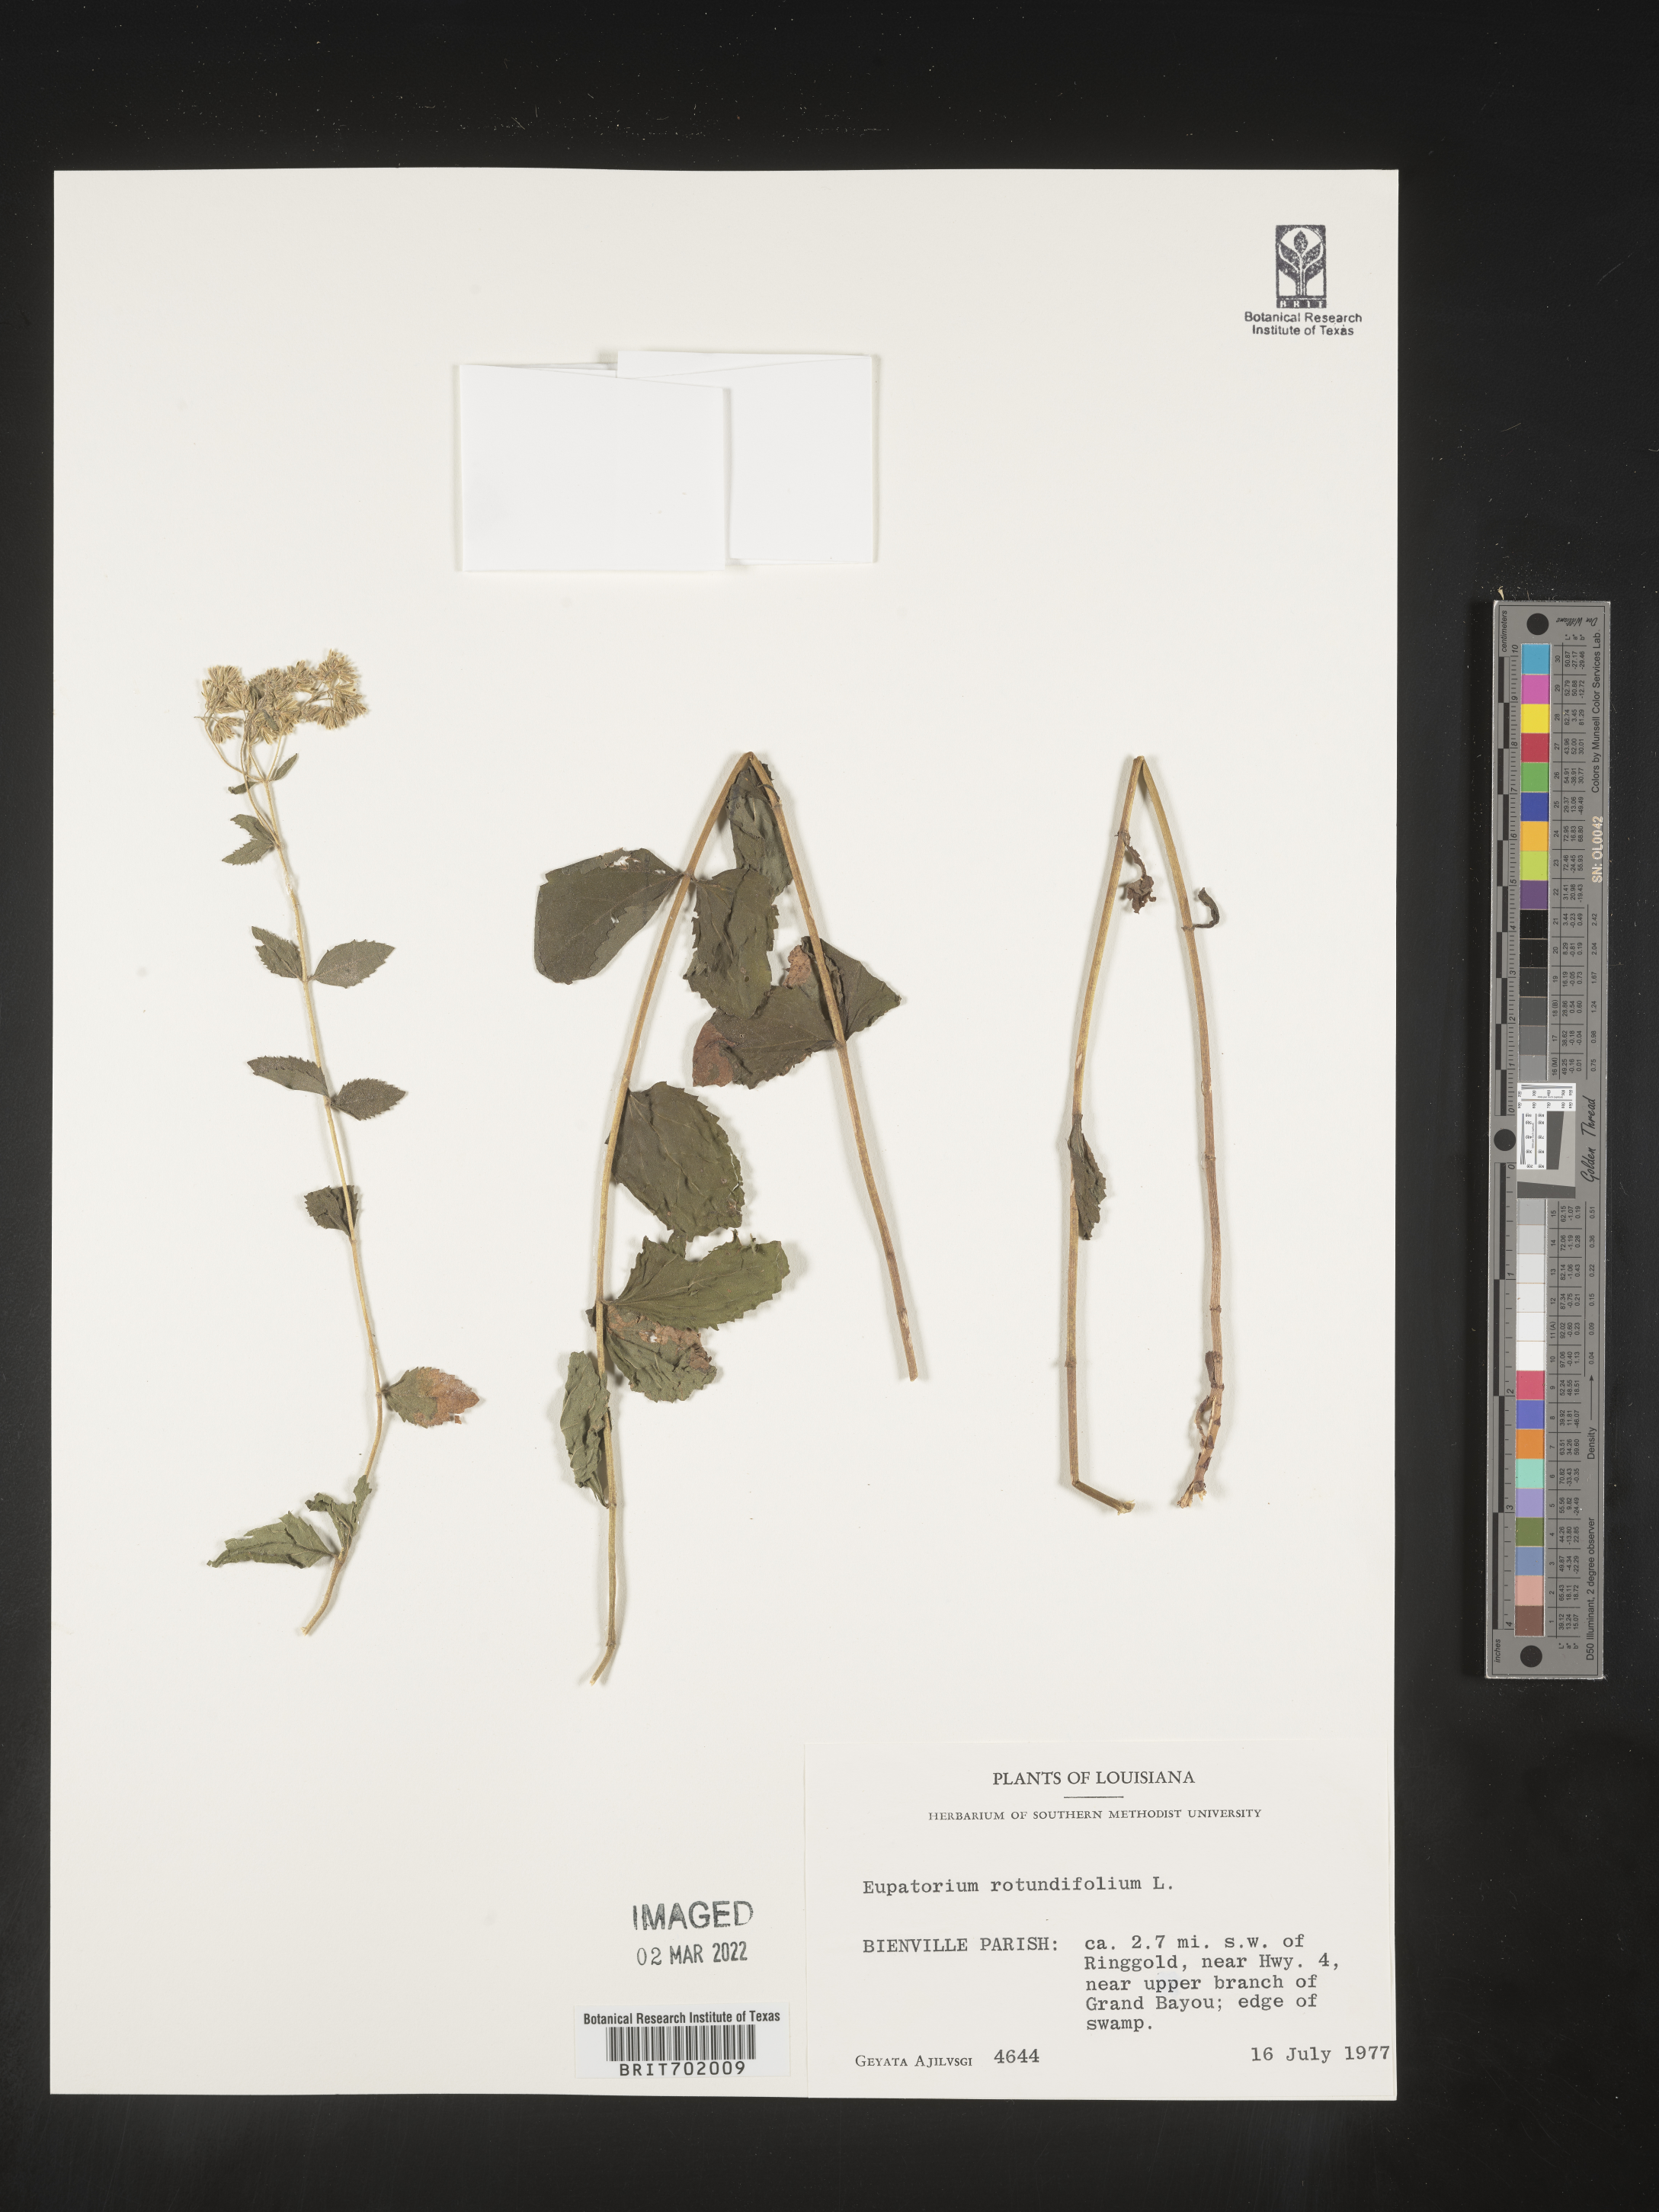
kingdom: Plantae
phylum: Tracheophyta
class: Magnoliopsida
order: Asterales
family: Asteraceae
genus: Eupatorium
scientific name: Eupatorium rotundifolium
